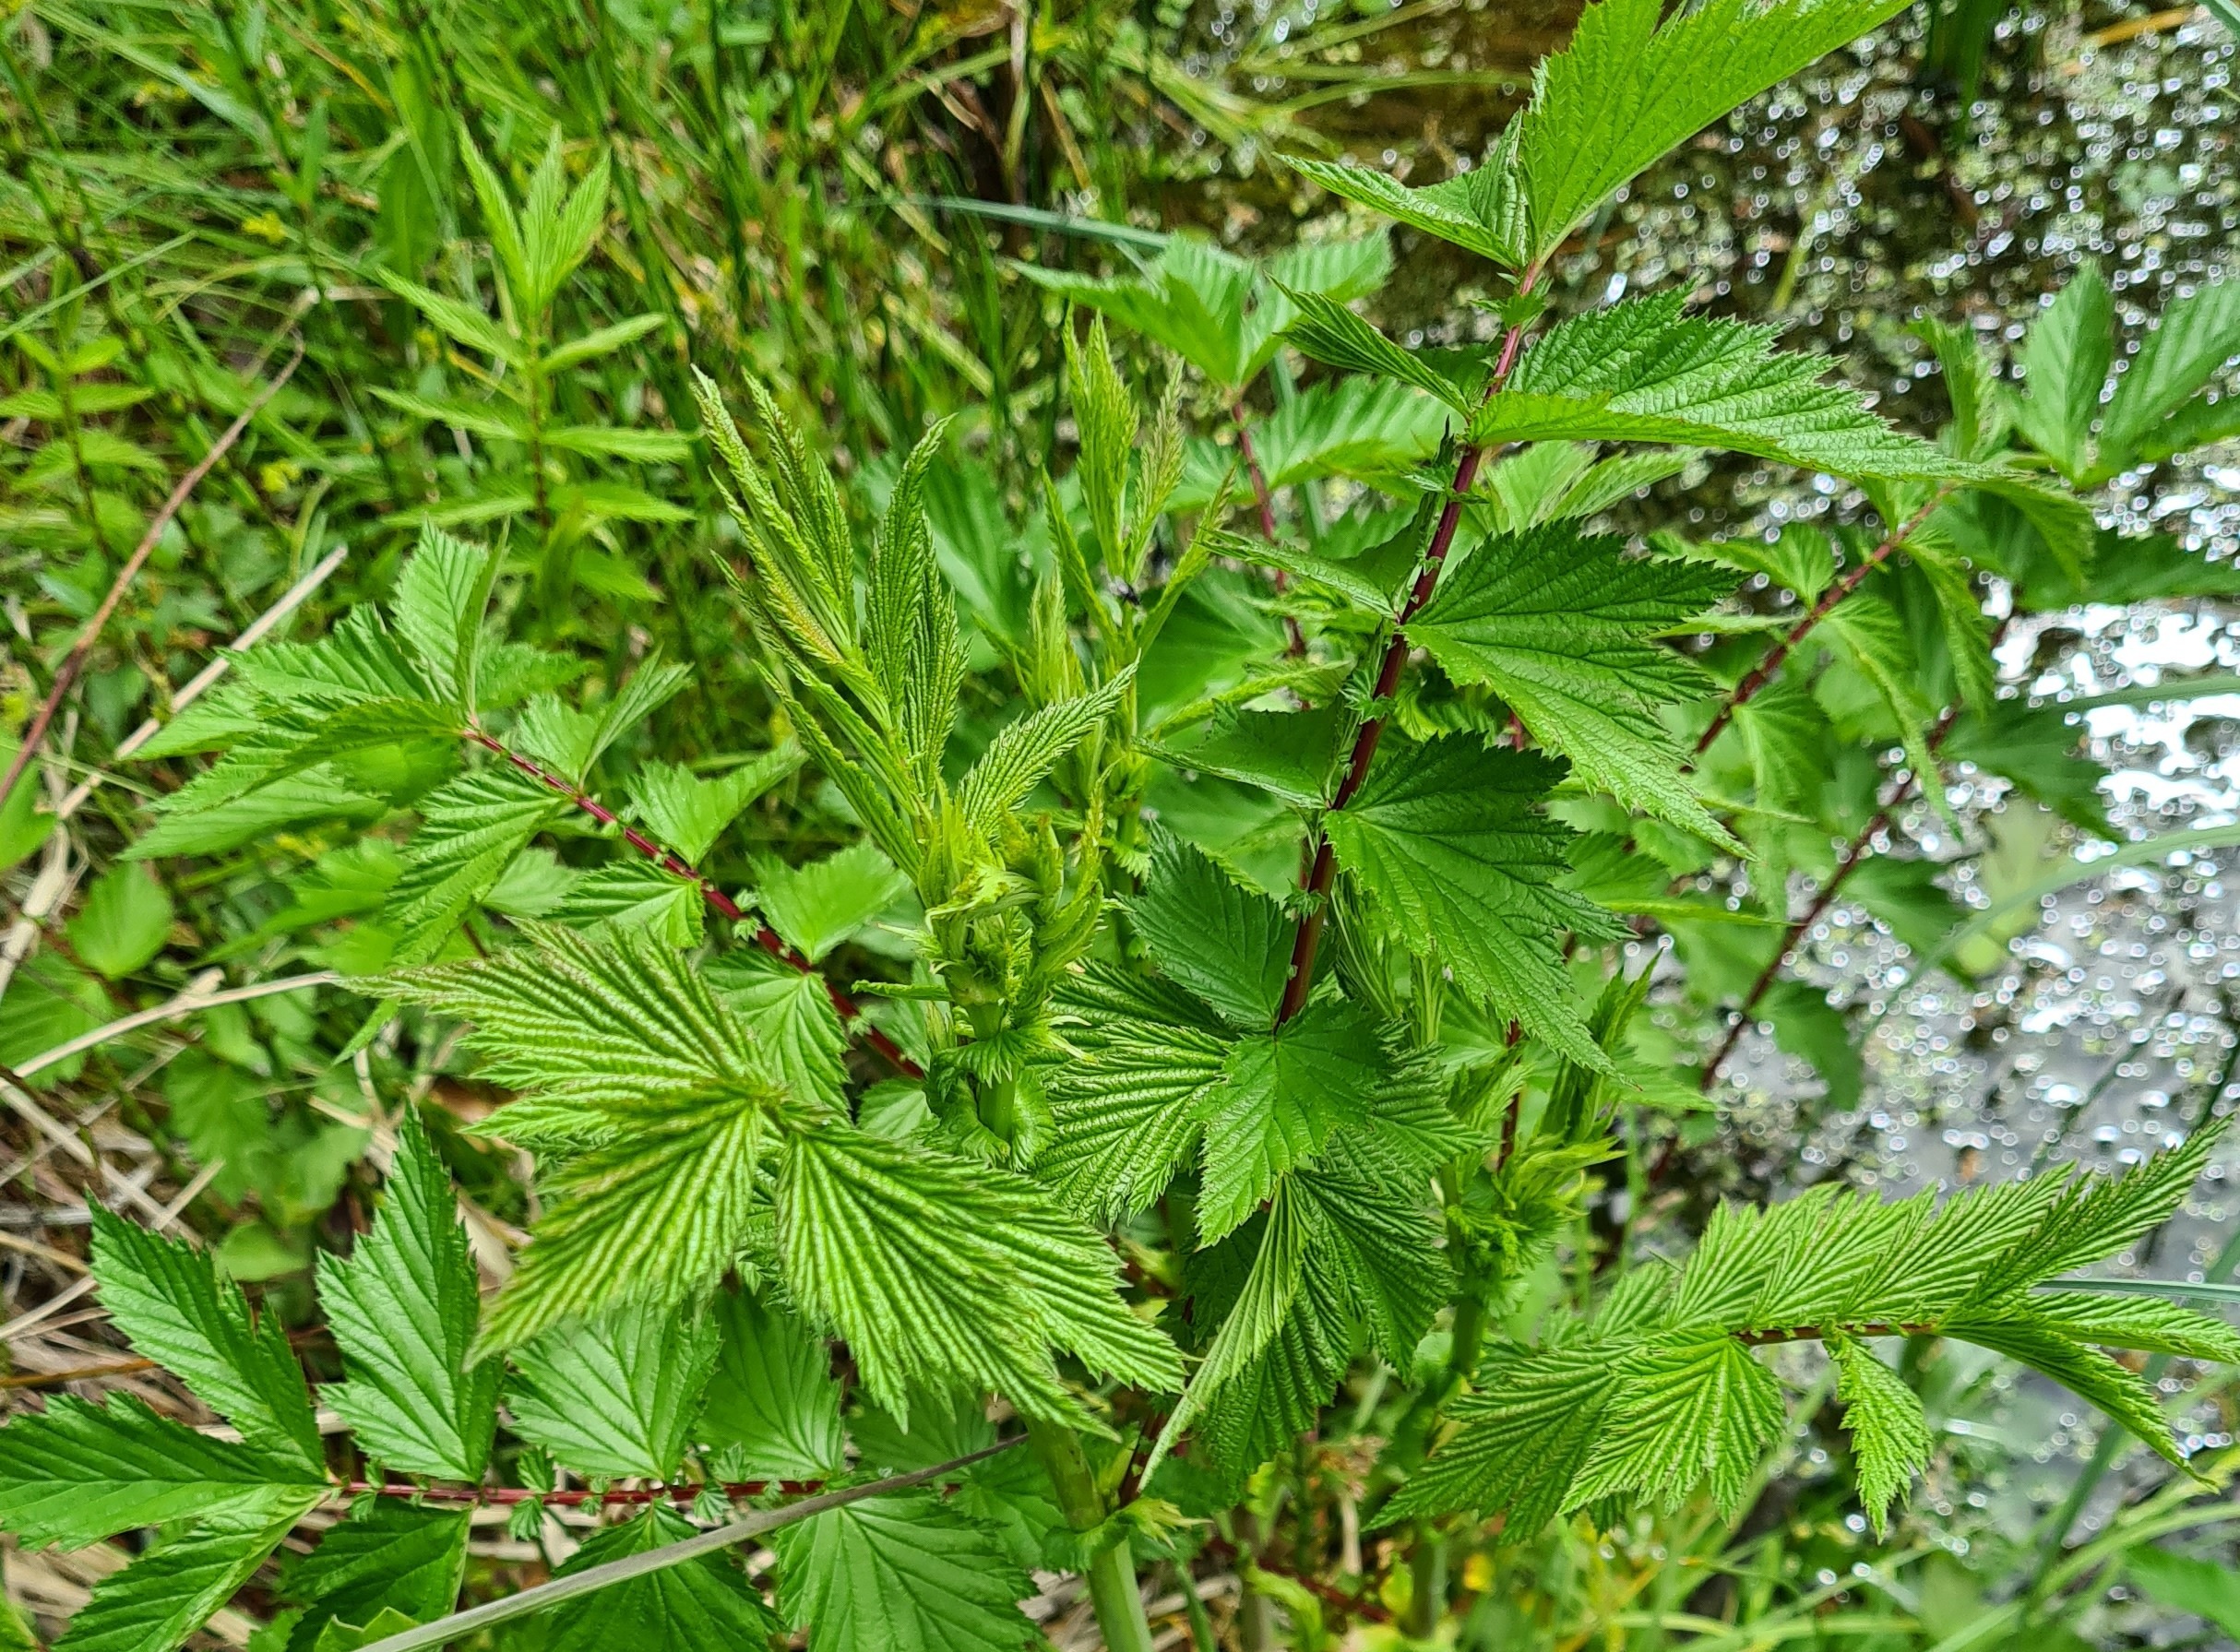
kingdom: Plantae
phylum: Tracheophyta
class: Magnoliopsida
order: Rosales
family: Rosaceae
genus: Filipendula
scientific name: Filipendula ulmaria
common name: Almindelig mjødurt
